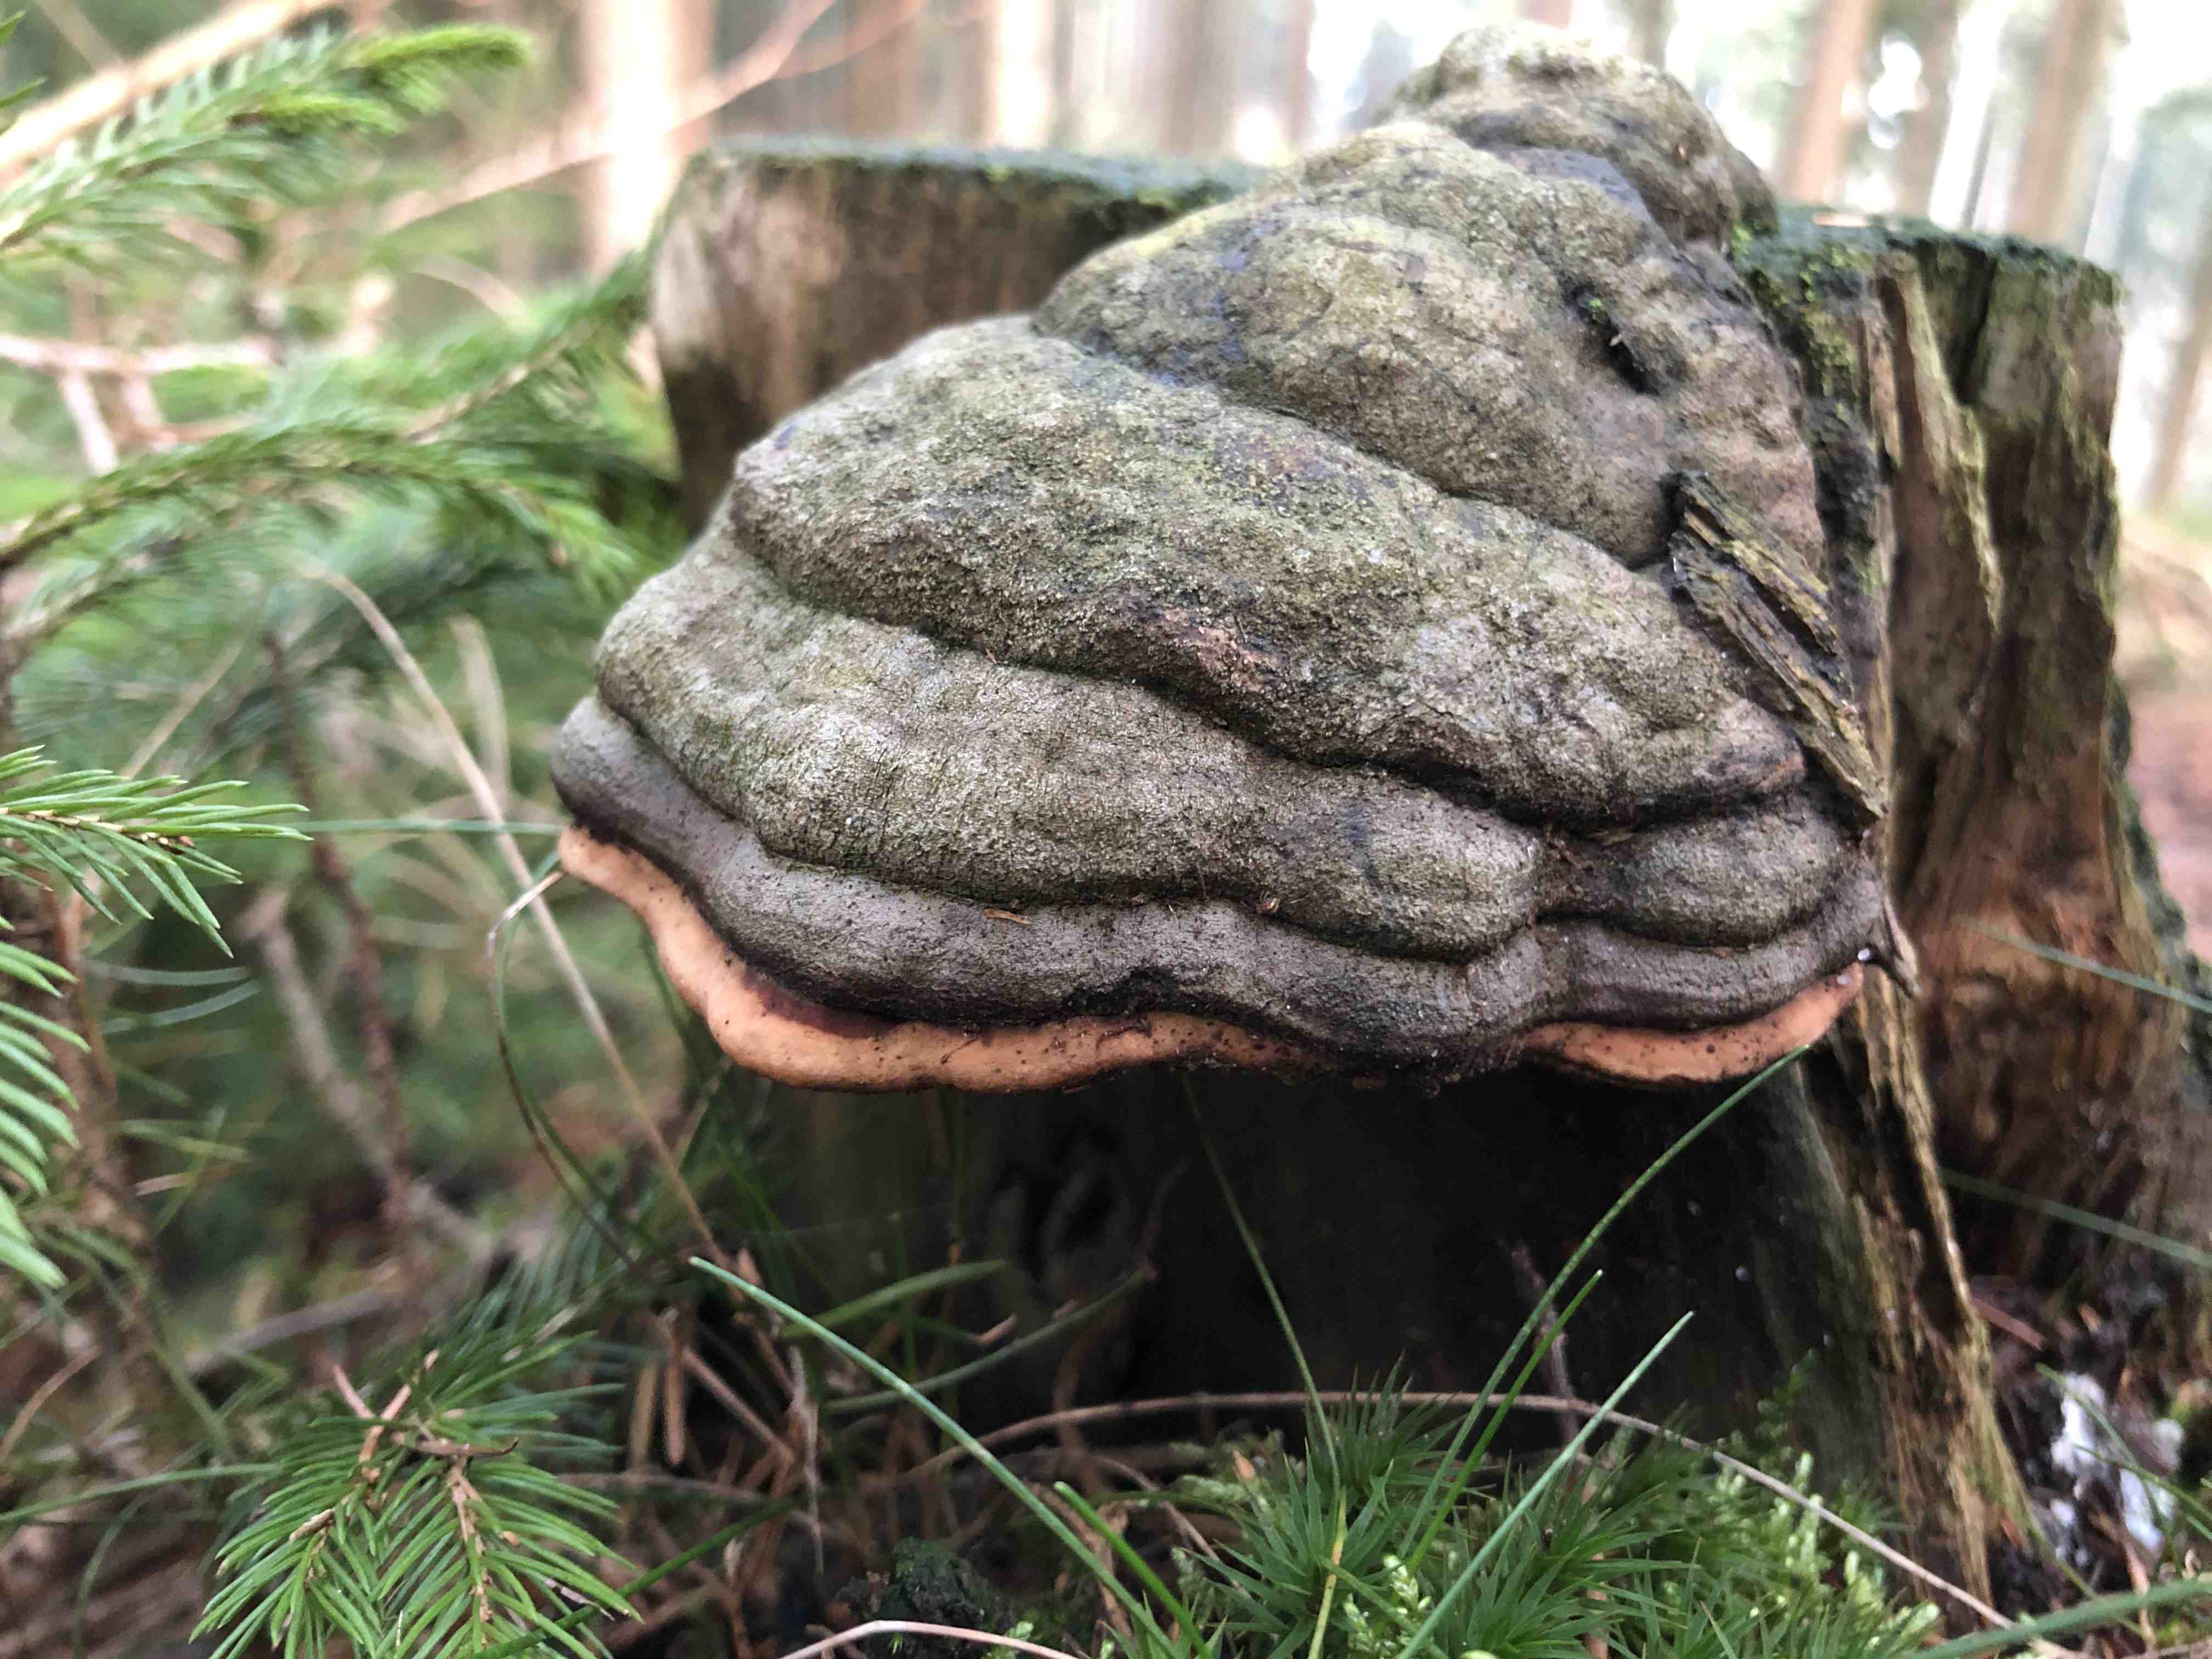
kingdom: Fungi
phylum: Basidiomycota
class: Agaricomycetes
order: Polyporales
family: Fomitopsidaceae
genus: Fomitopsis
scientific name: Fomitopsis pinicola
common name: randbæltet hovporesvamp
